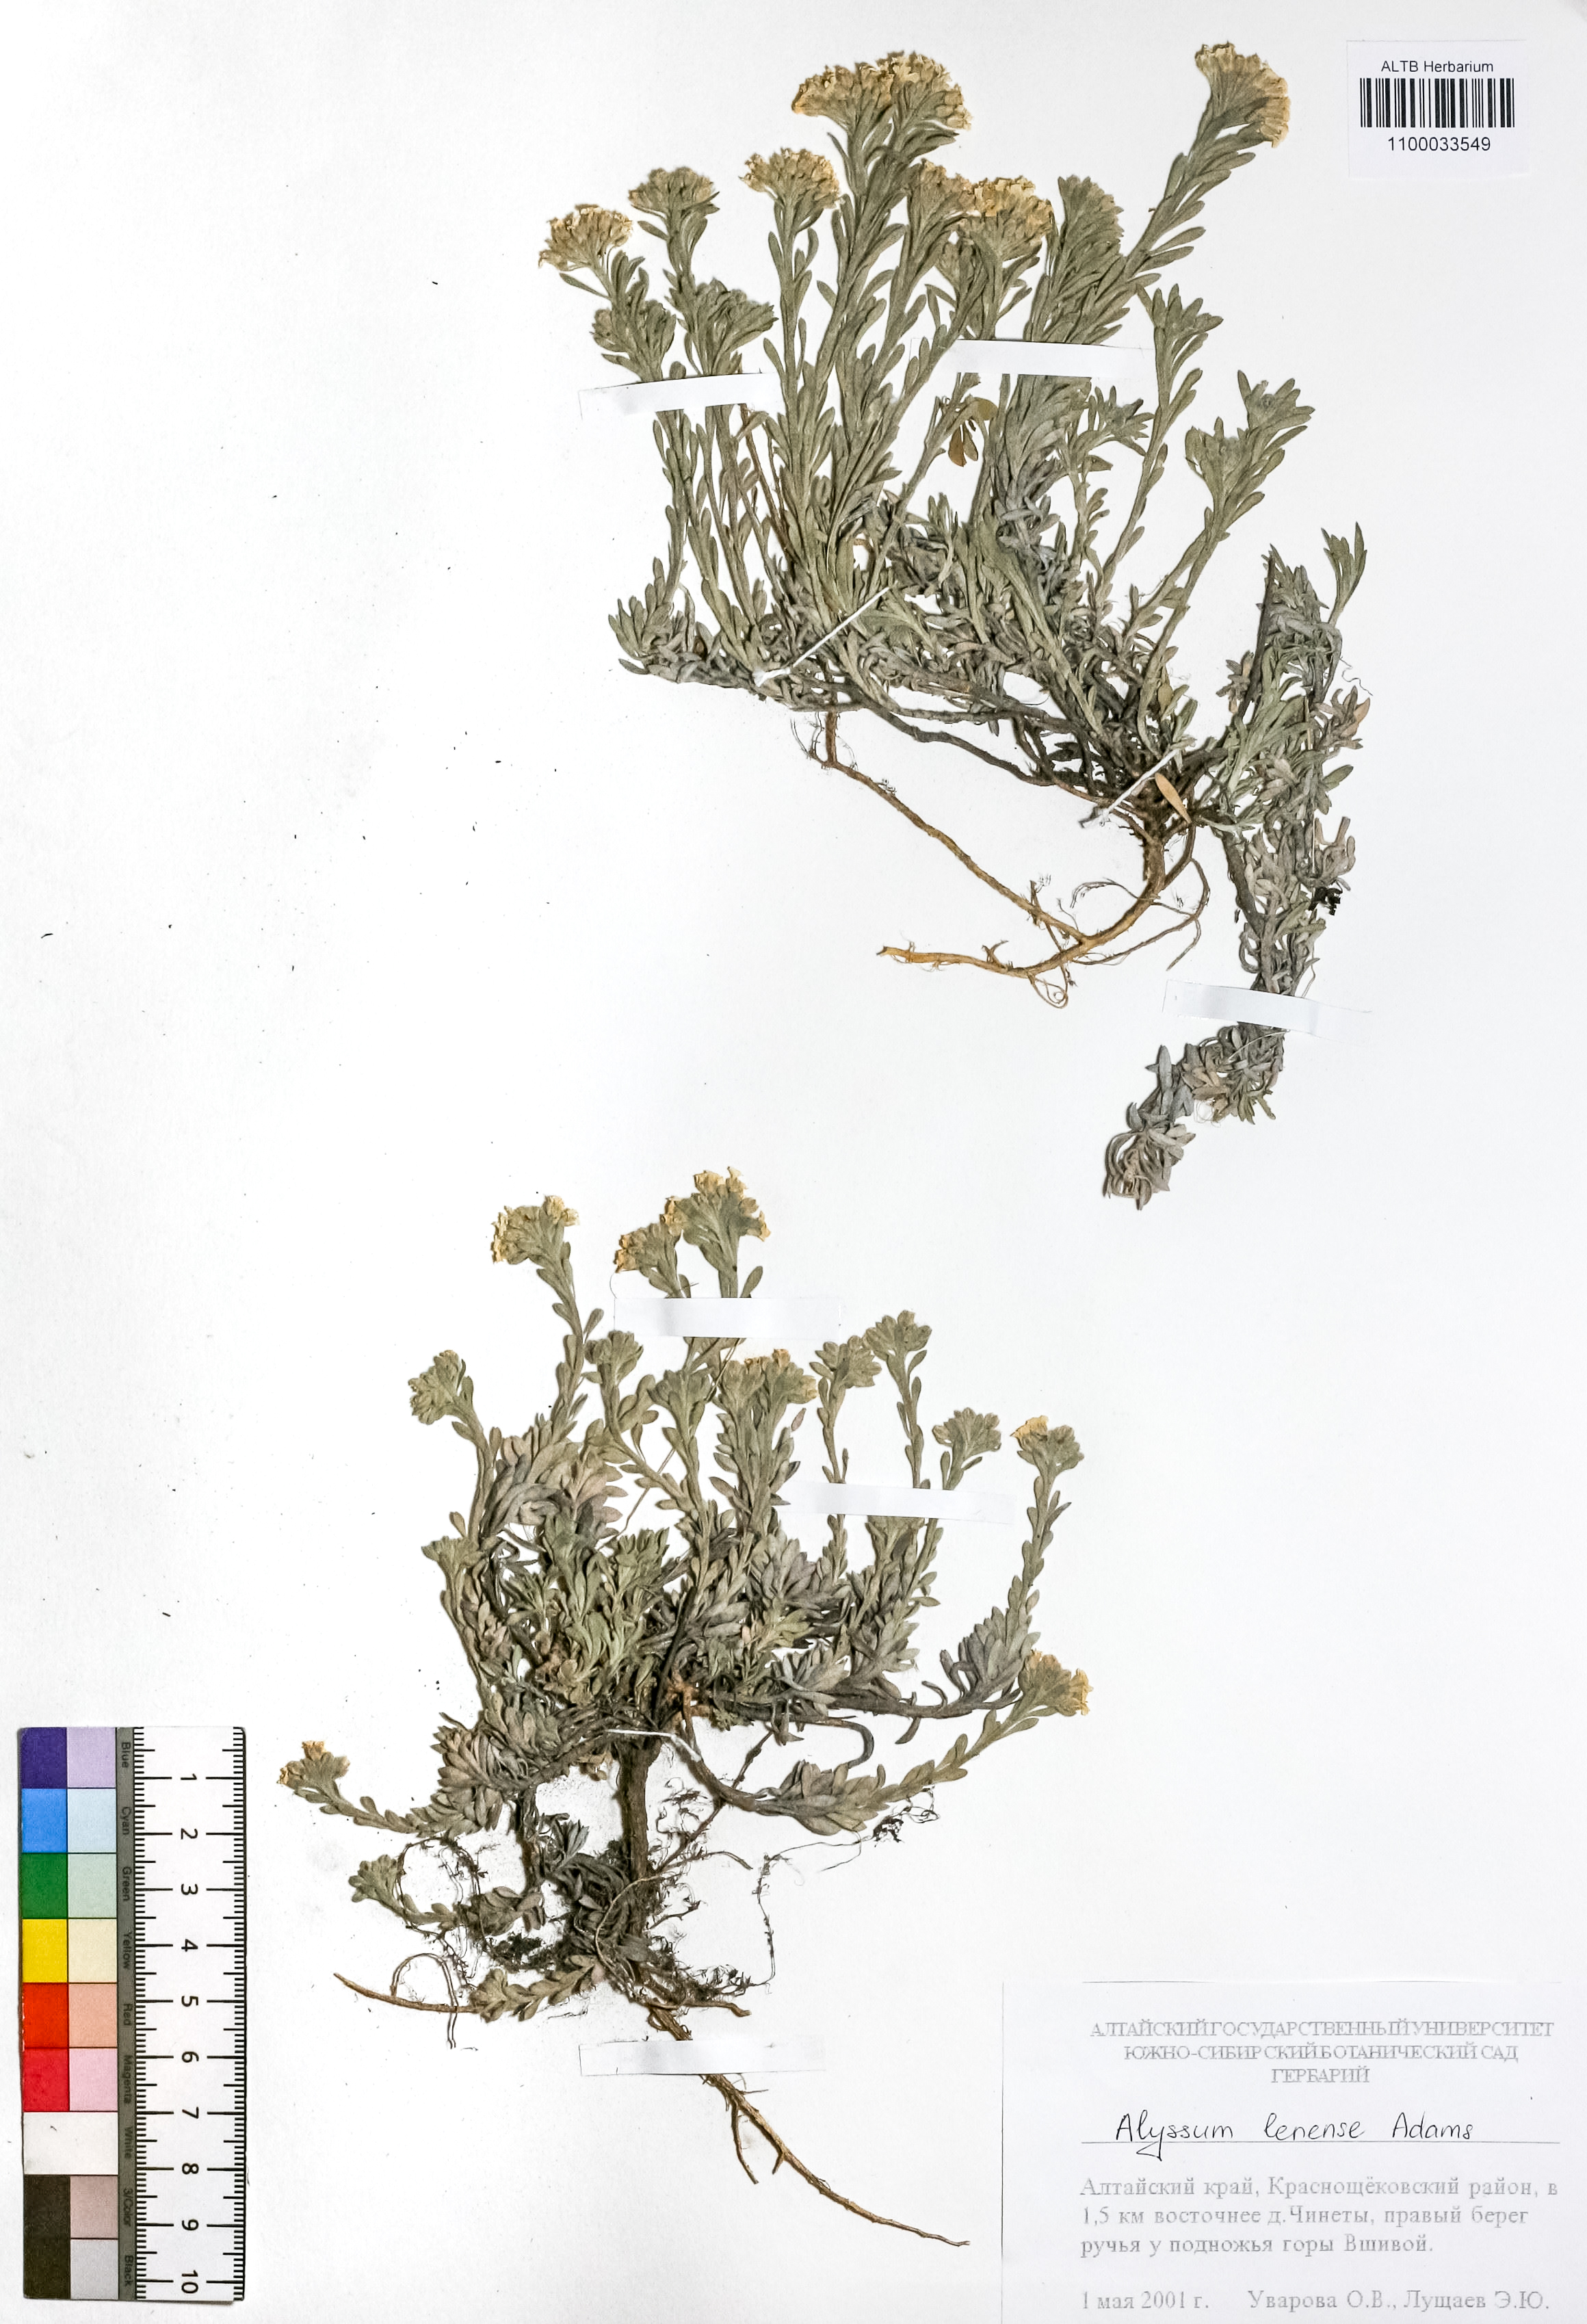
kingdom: Plantae
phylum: Tracheophyta
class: Magnoliopsida
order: Brassicales
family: Brassicaceae
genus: Alyssum
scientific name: Alyssum lenense
